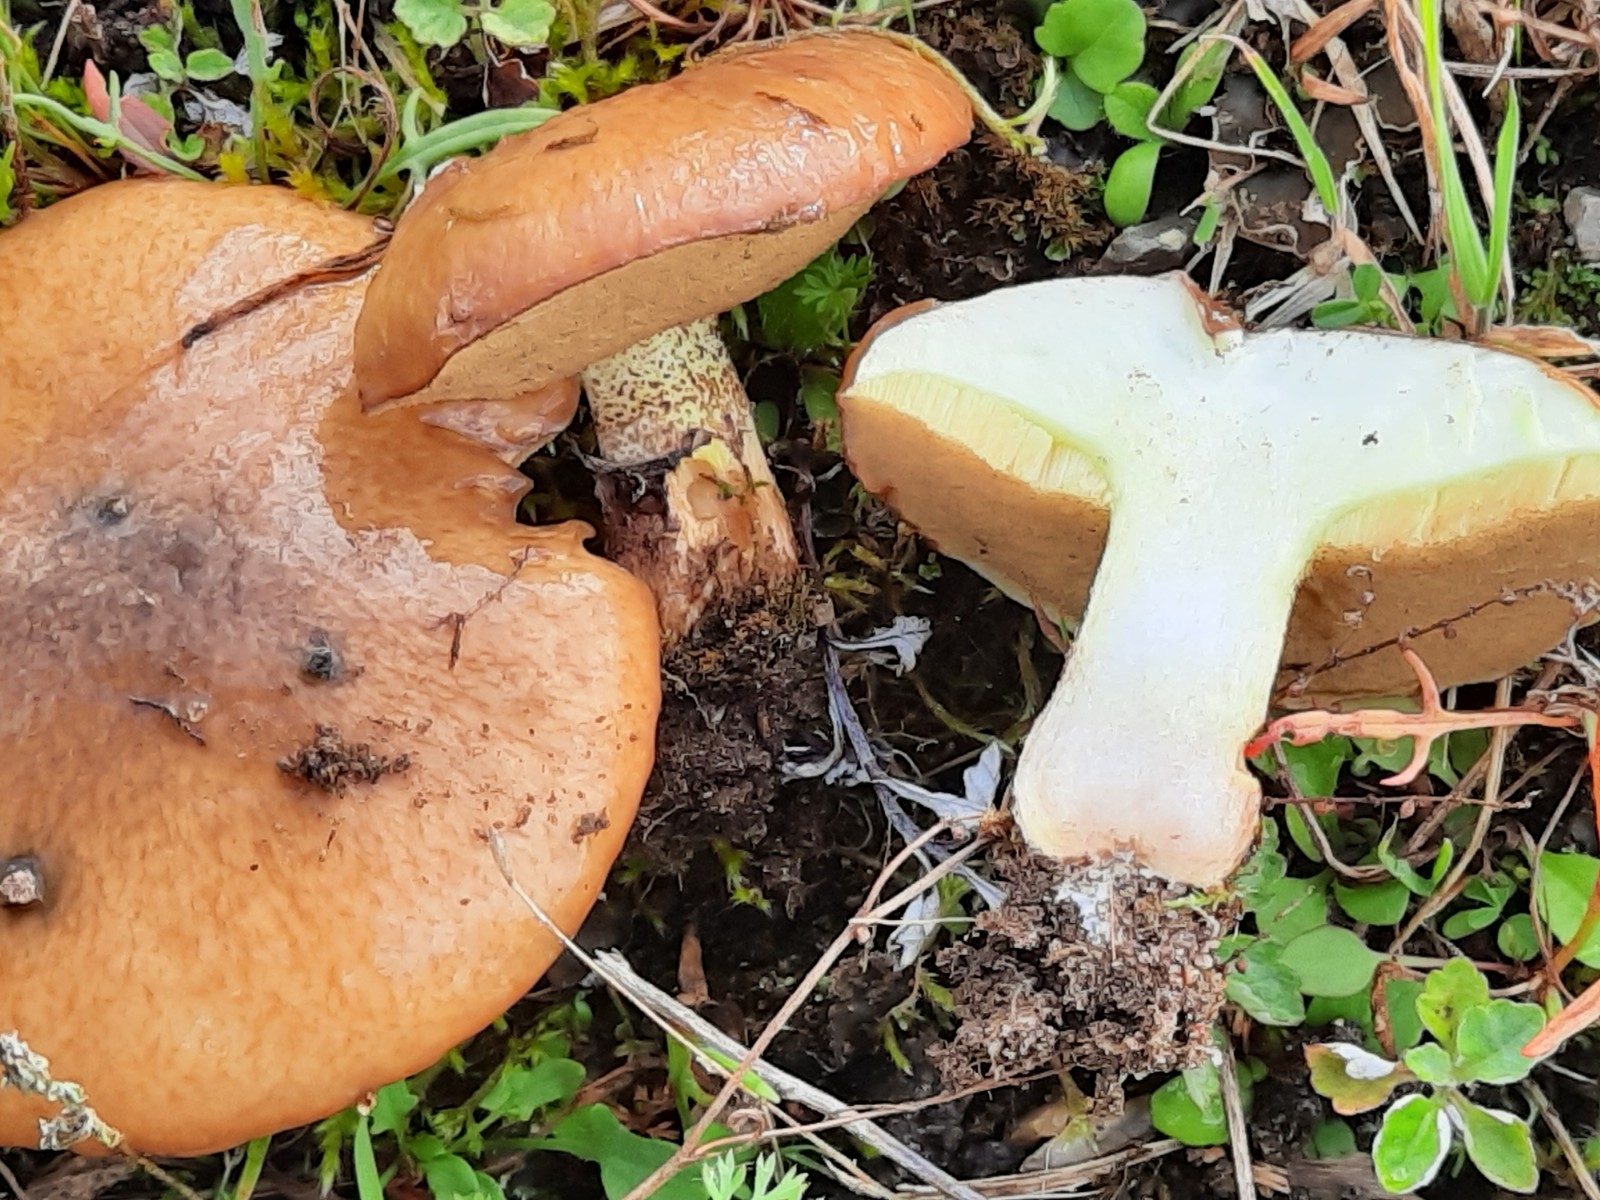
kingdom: Fungi
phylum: Basidiomycota
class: Agaricomycetes
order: Boletales
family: Suillaceae
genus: Suillus
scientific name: Suillus luteus
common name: brungul slimrørhat
